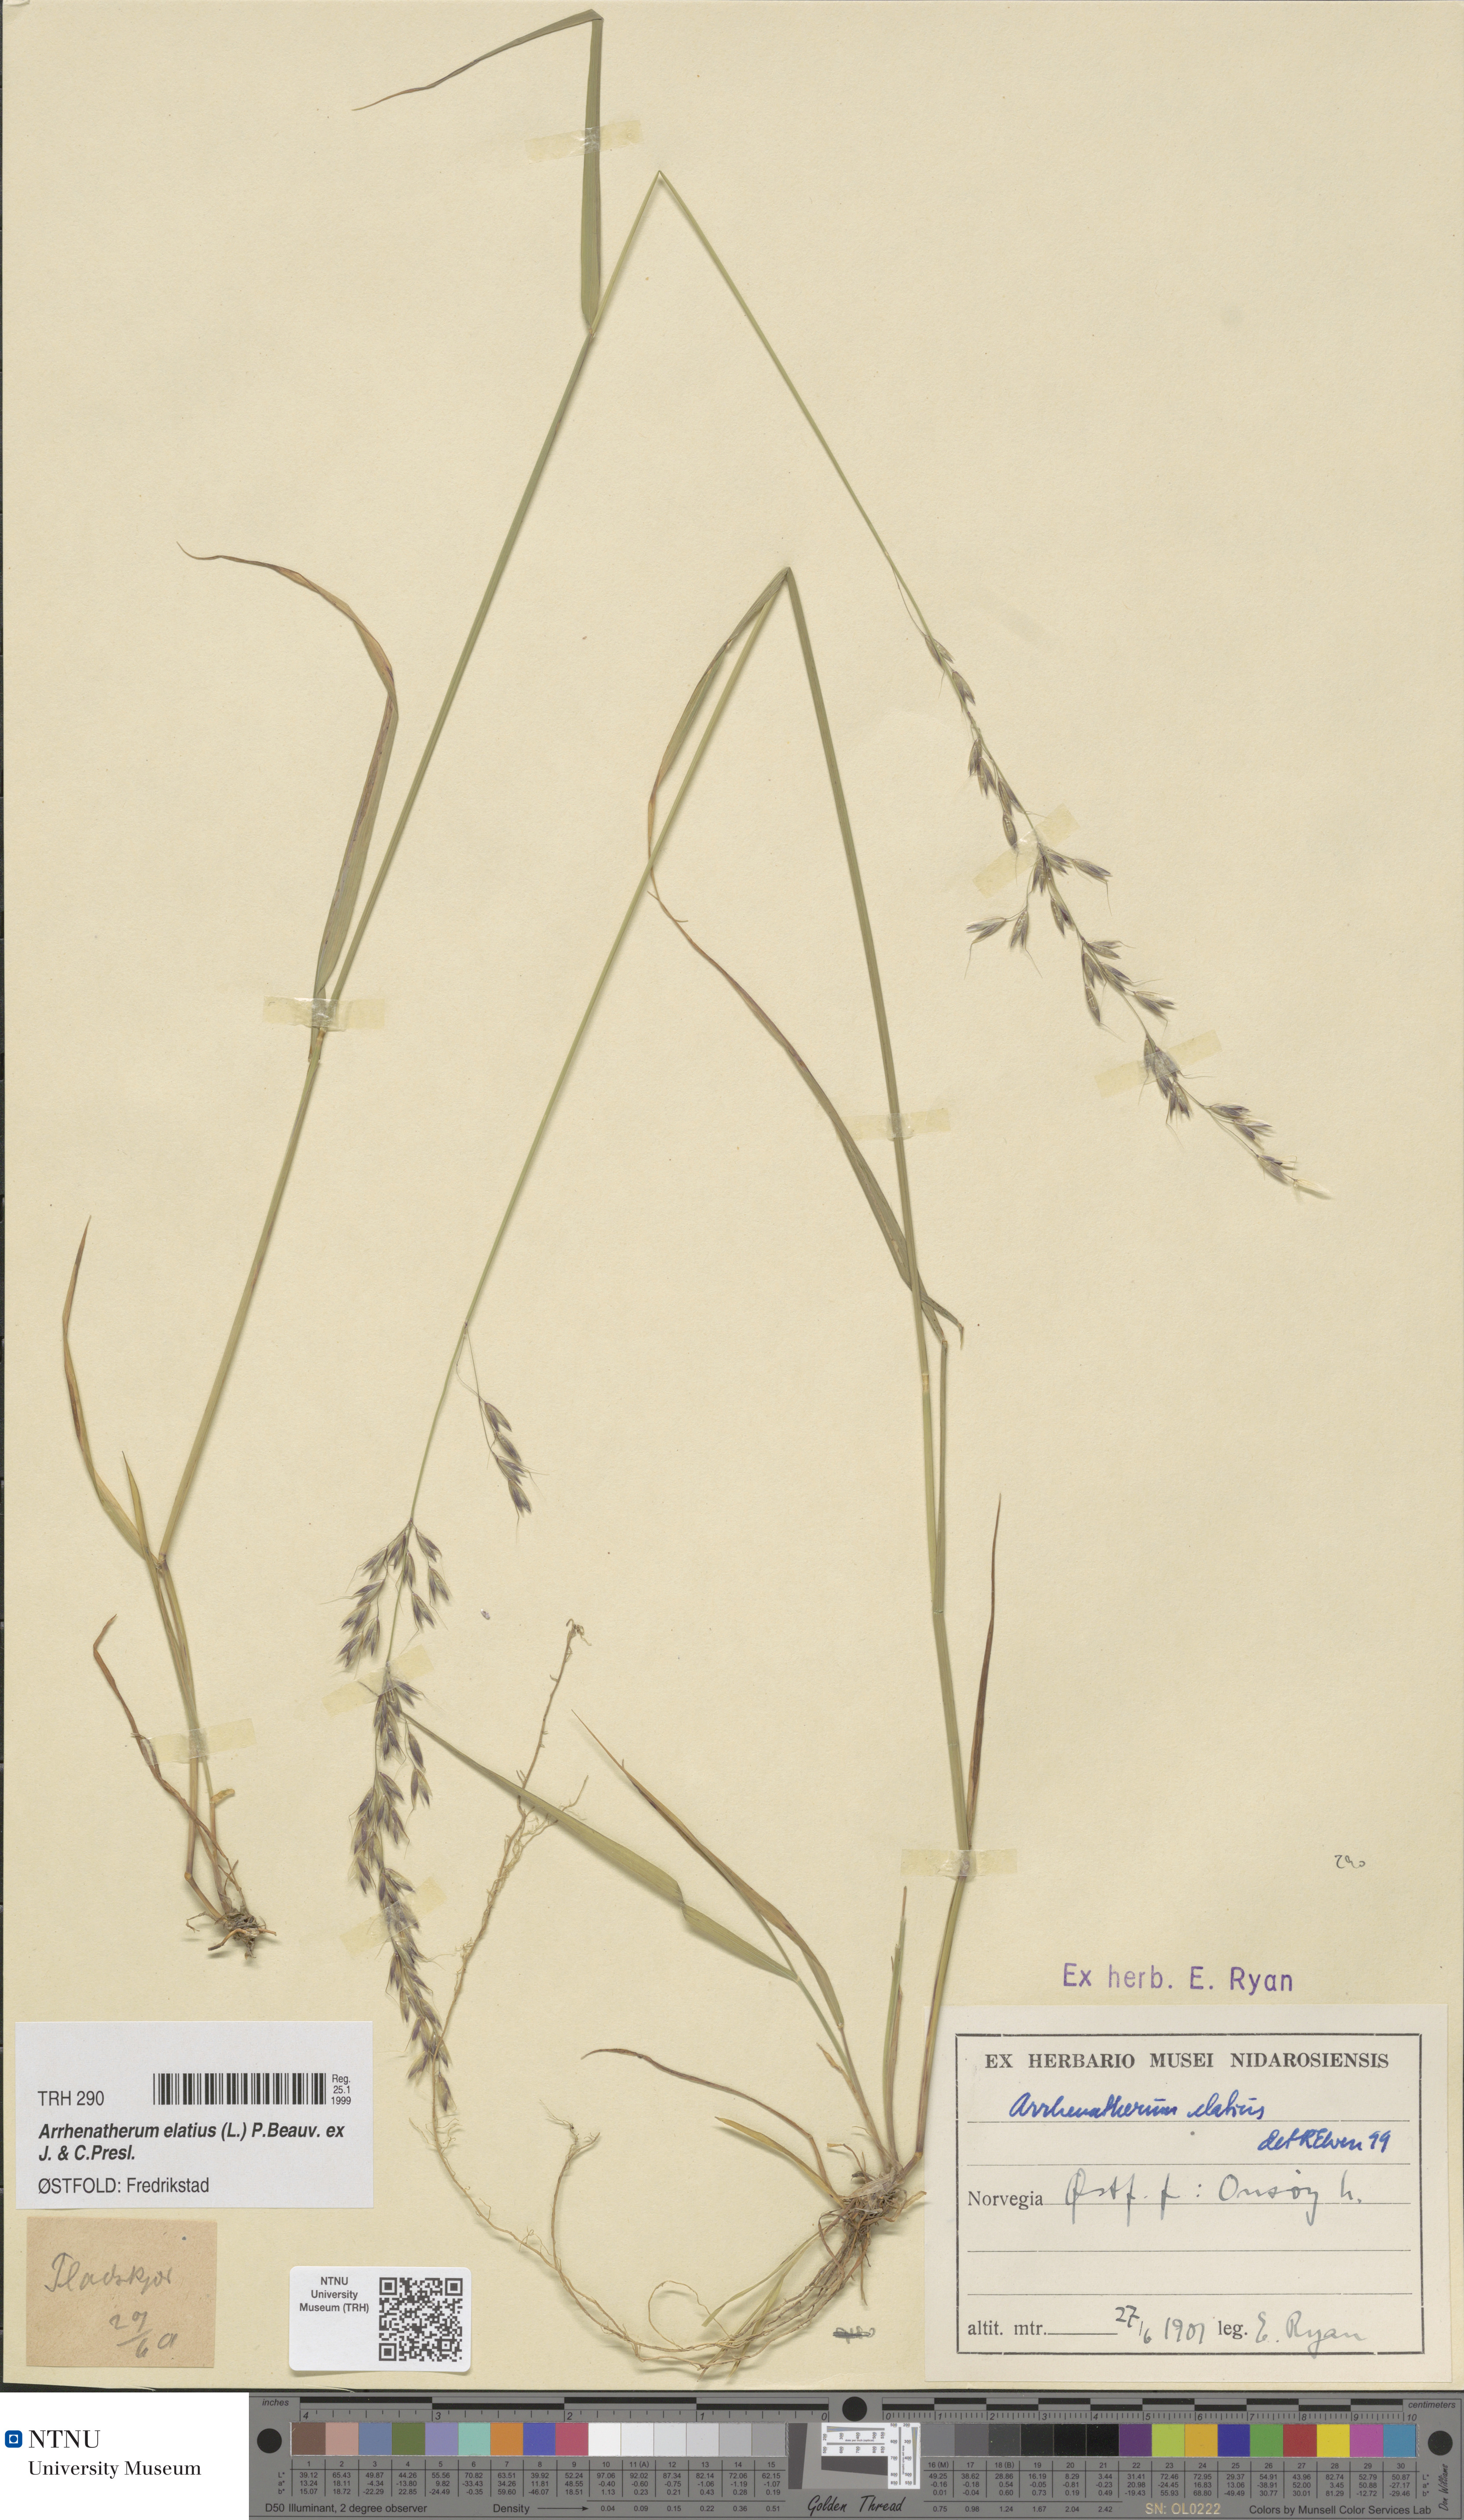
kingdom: Plantae
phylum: Tracheophyta
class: Liliopsida
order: Poales
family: Poaceae
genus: Arrhenatherum
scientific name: Arrhenatherum elatius
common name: Tall oatgrass
